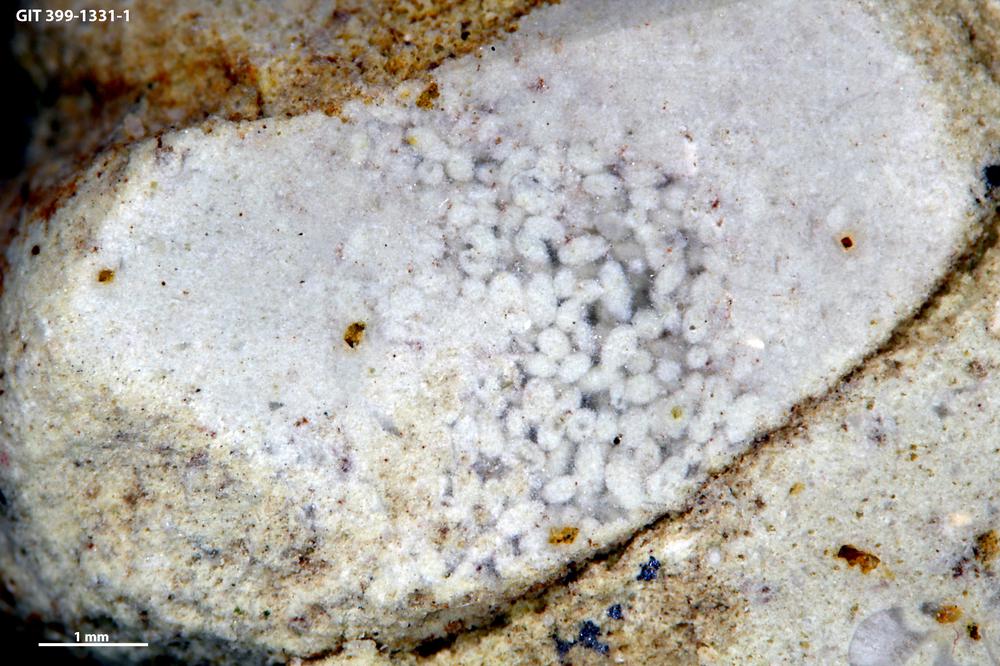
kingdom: Animalia
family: Coprulidae
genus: Coprulus
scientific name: Coprulus
